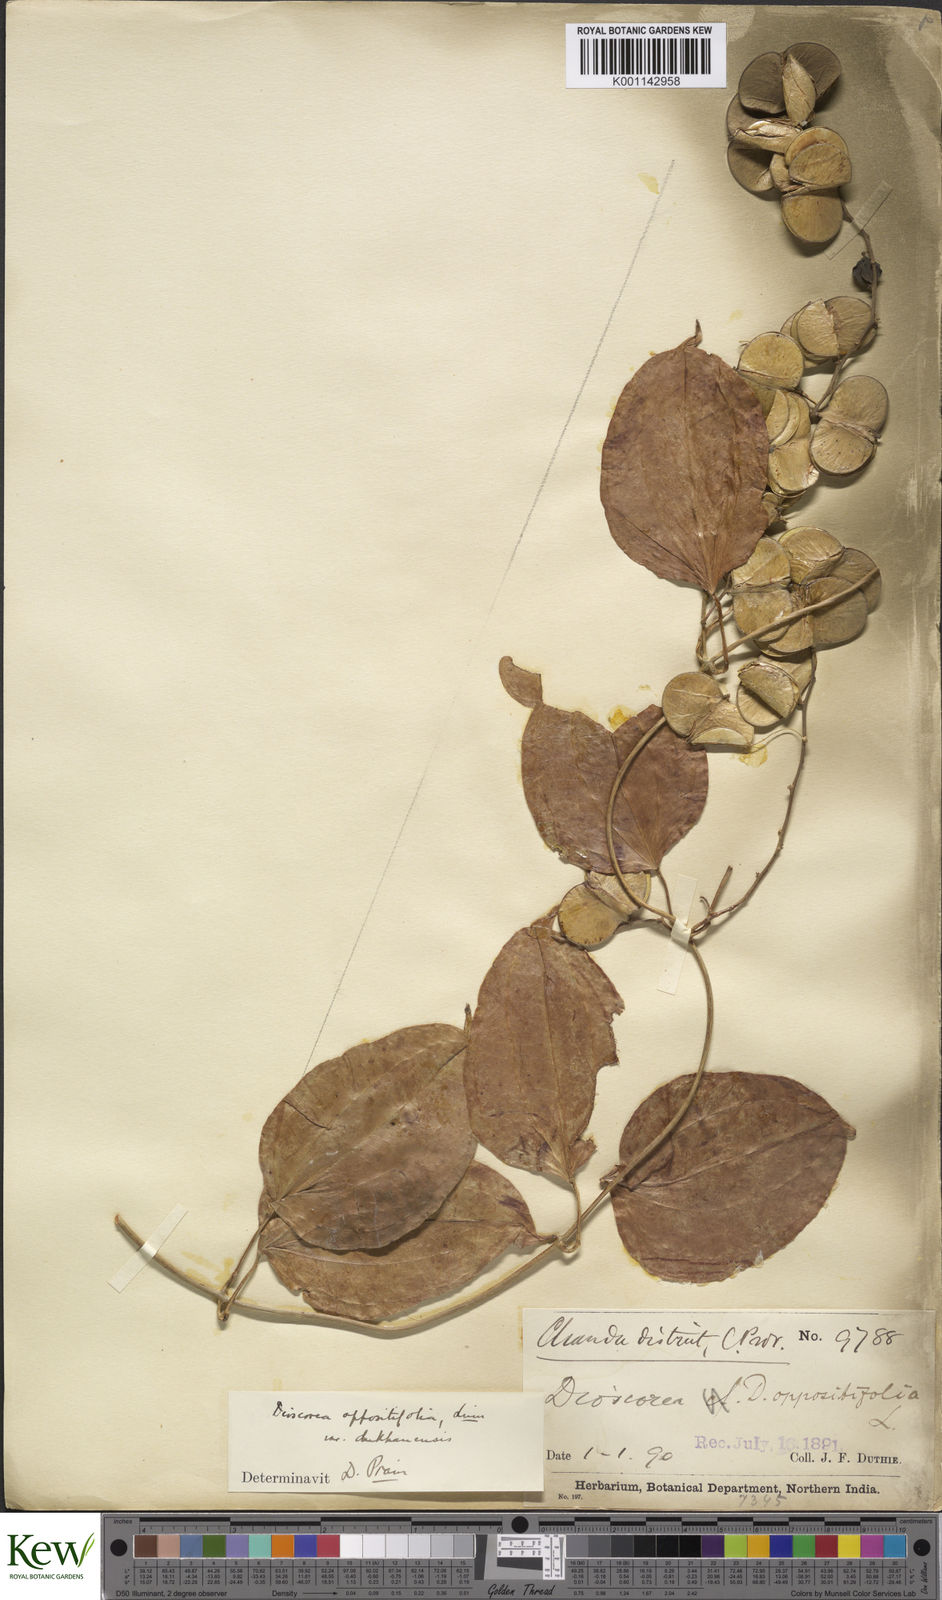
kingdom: Plantae
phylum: Tracheophyta
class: Liliopsida
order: Dioscoreales
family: Dioscoreaceae
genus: Dioscorea
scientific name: Dioscorea oppositifolia
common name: Chinese yam
